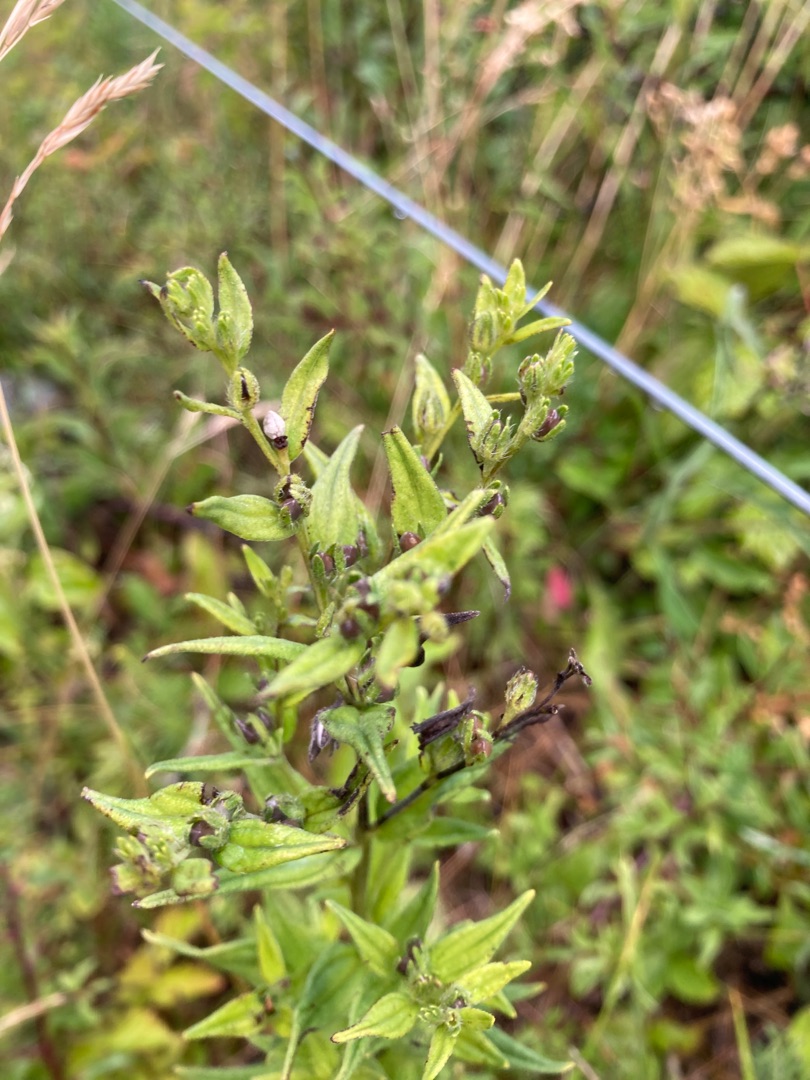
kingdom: Plantae
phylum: Tracheophyta
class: Magnoliopsida
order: Boraginales
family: Boraginaceae
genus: Lithospermum
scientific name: Lithospermum officinale
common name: Læge-stenfrø
